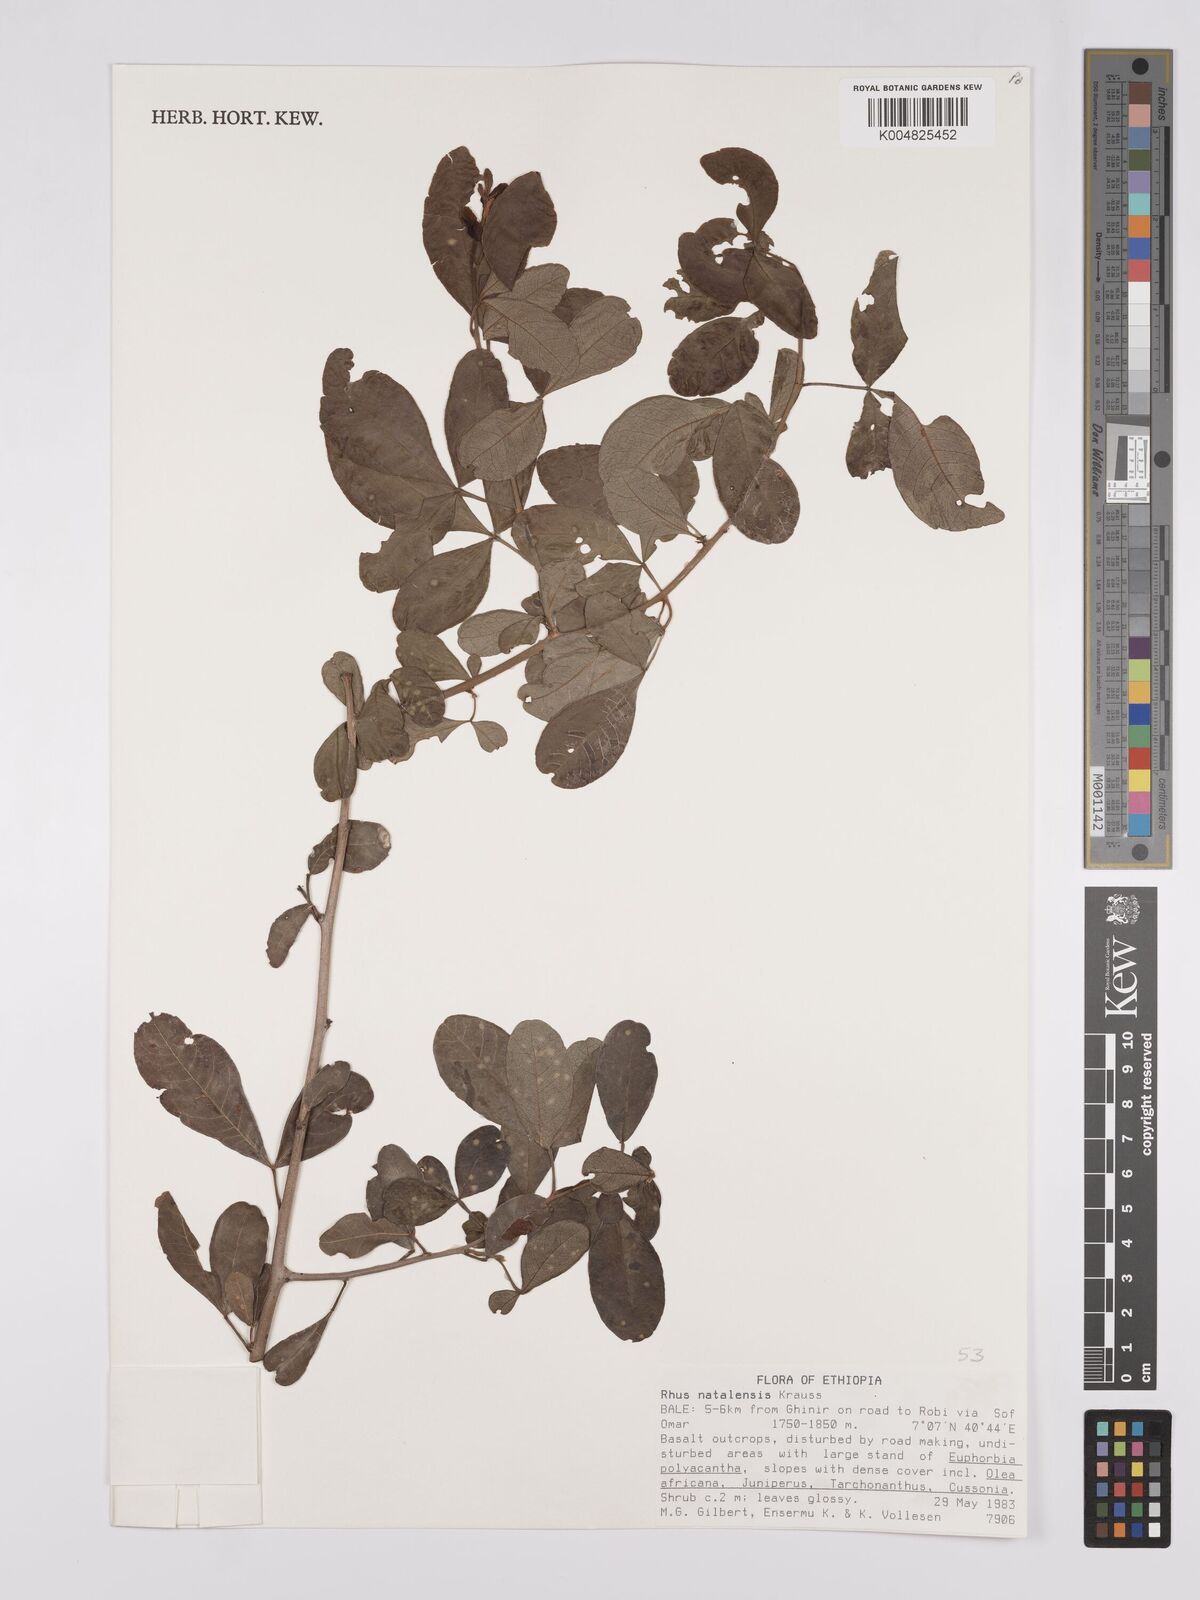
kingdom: Plantae
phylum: Tracheophyta
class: Magnoliopsida
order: Sapindales
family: Anacardiaceae
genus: Searsia
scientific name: Searsia natalensis
